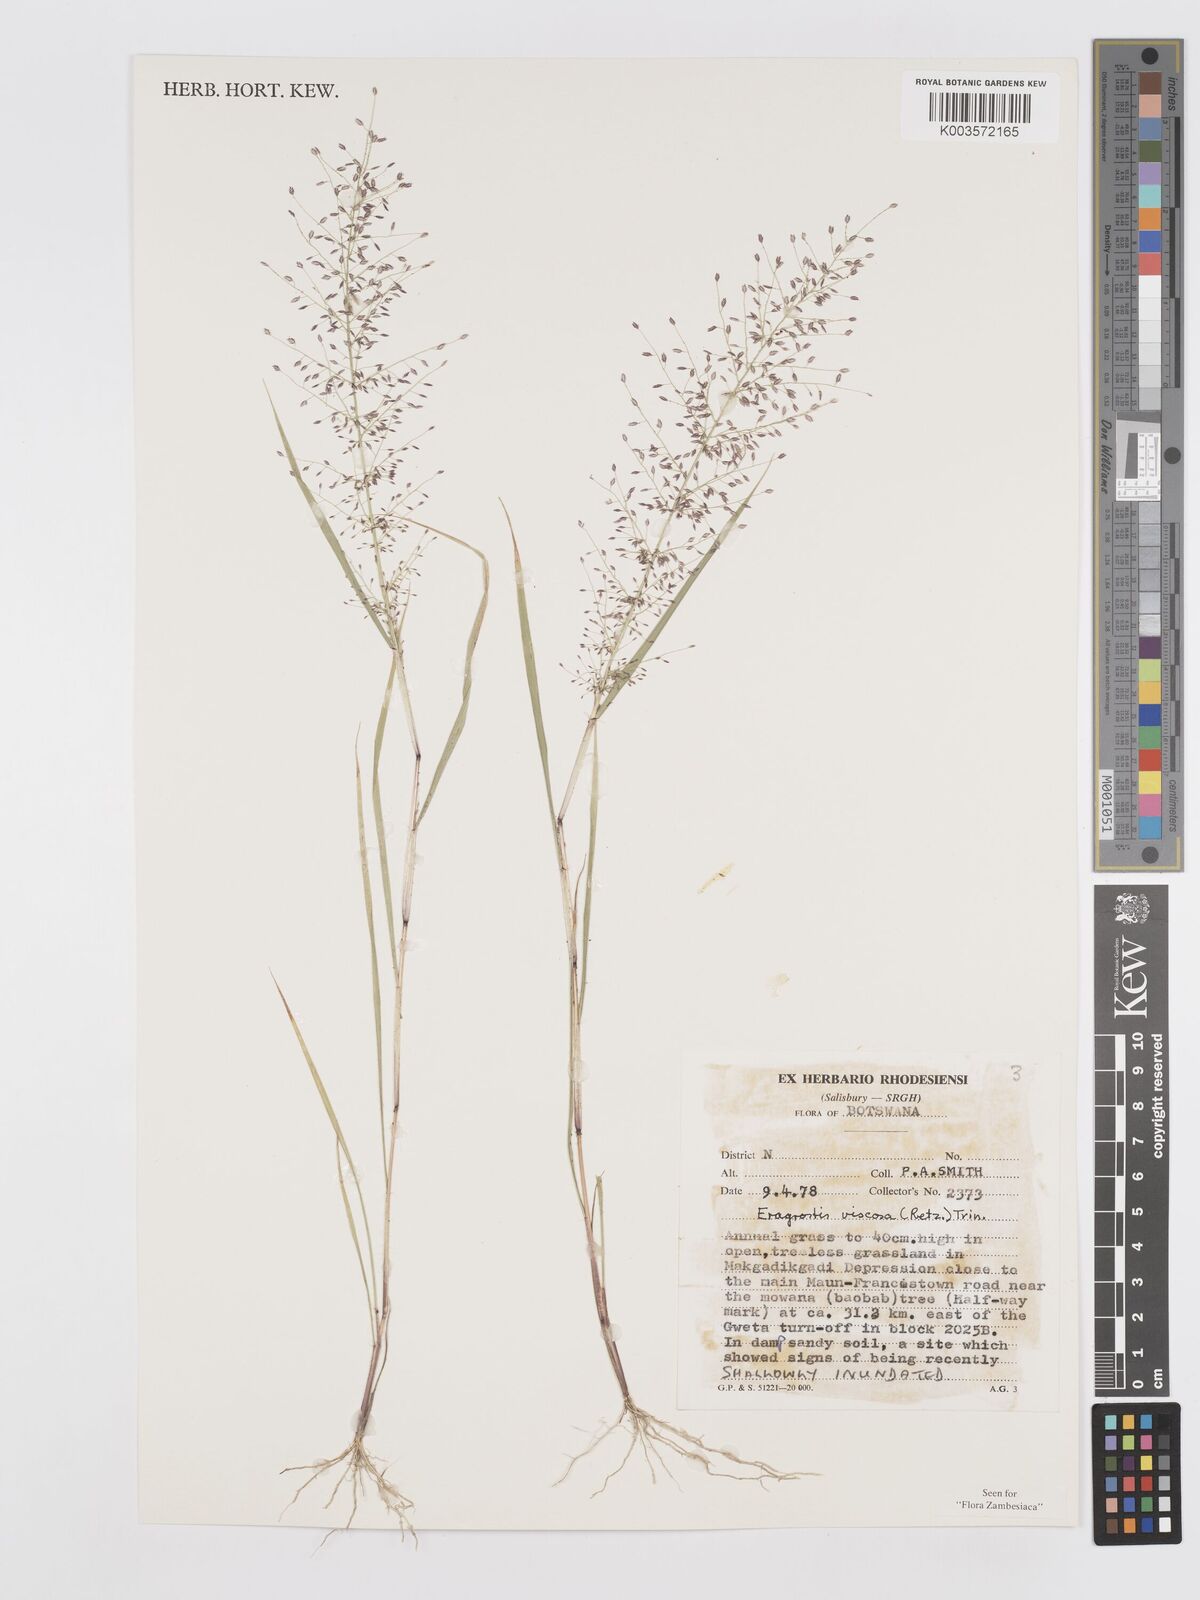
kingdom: Plantae
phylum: Tracheophyta
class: Liliopsida
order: Poales
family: Poaceae
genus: Eragrostis
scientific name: Eragrostis
